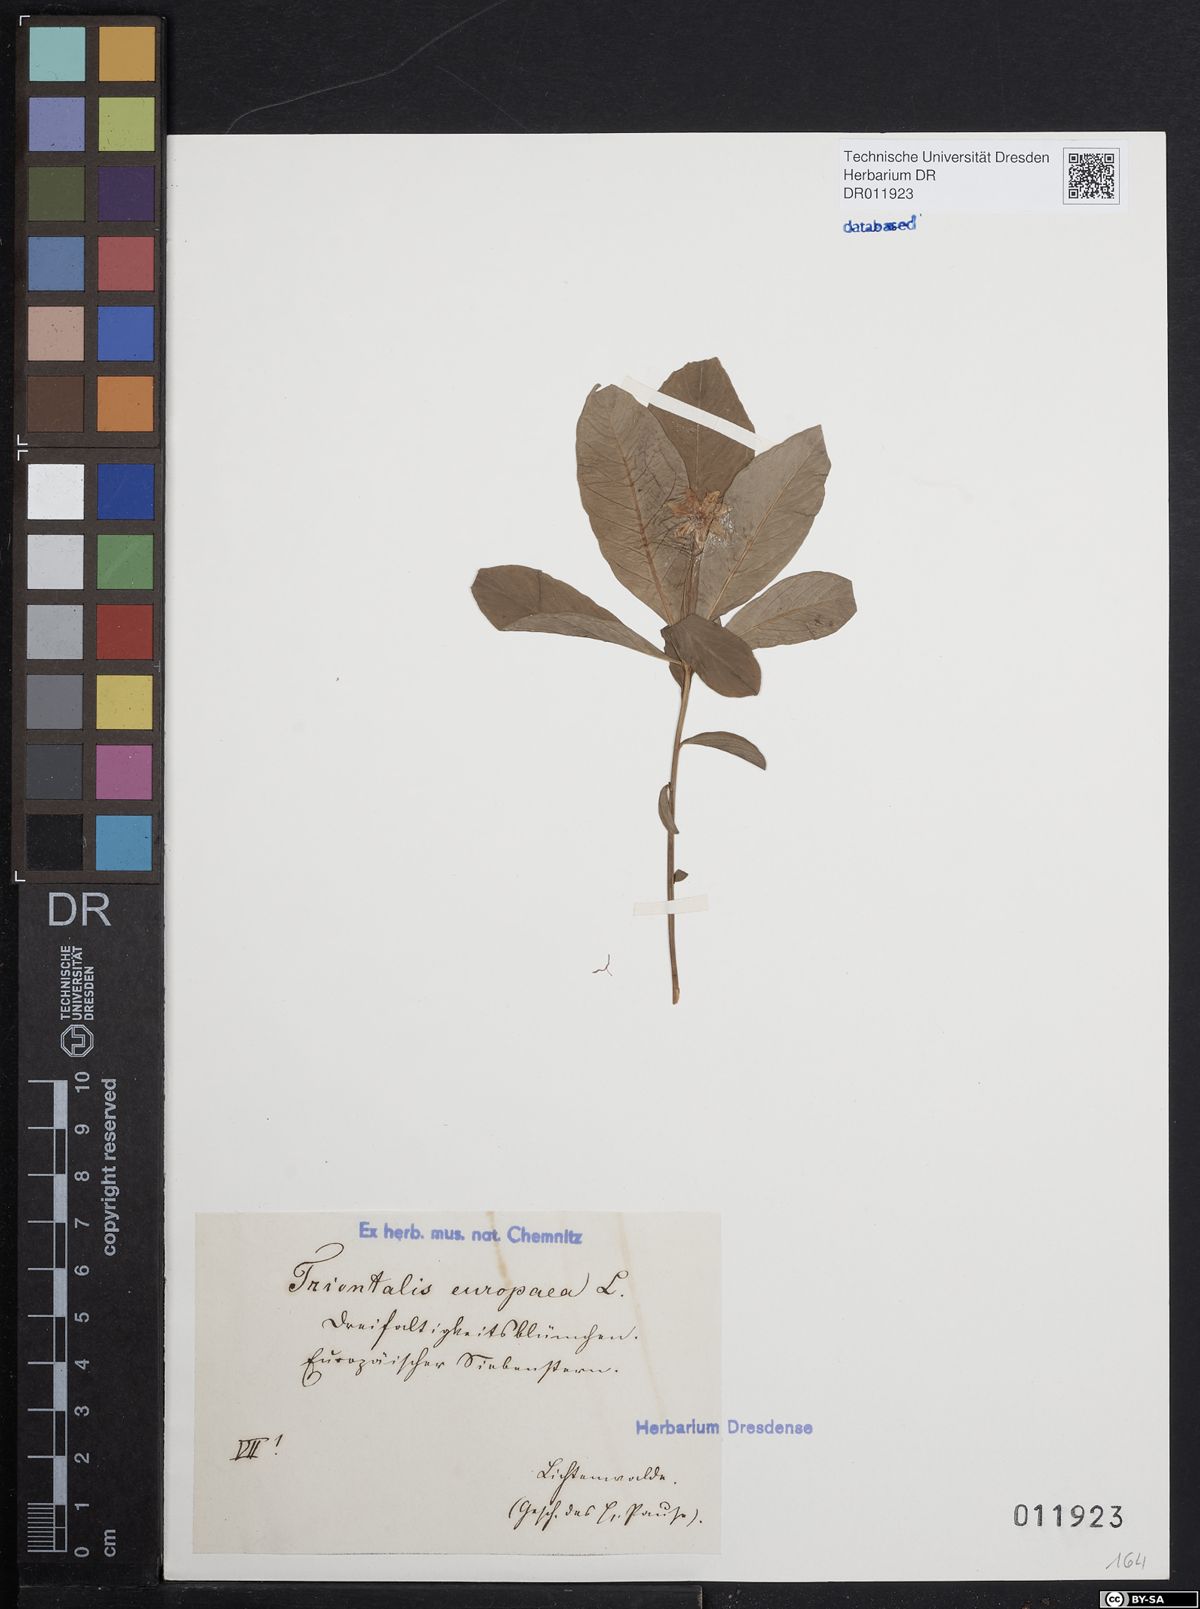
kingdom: Plantae
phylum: Tracheophyta
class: Magnoliopsida
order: Ericales
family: Primulaceae
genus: Lysimachia
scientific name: Lysimachia europaea
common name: Arctic starflower
